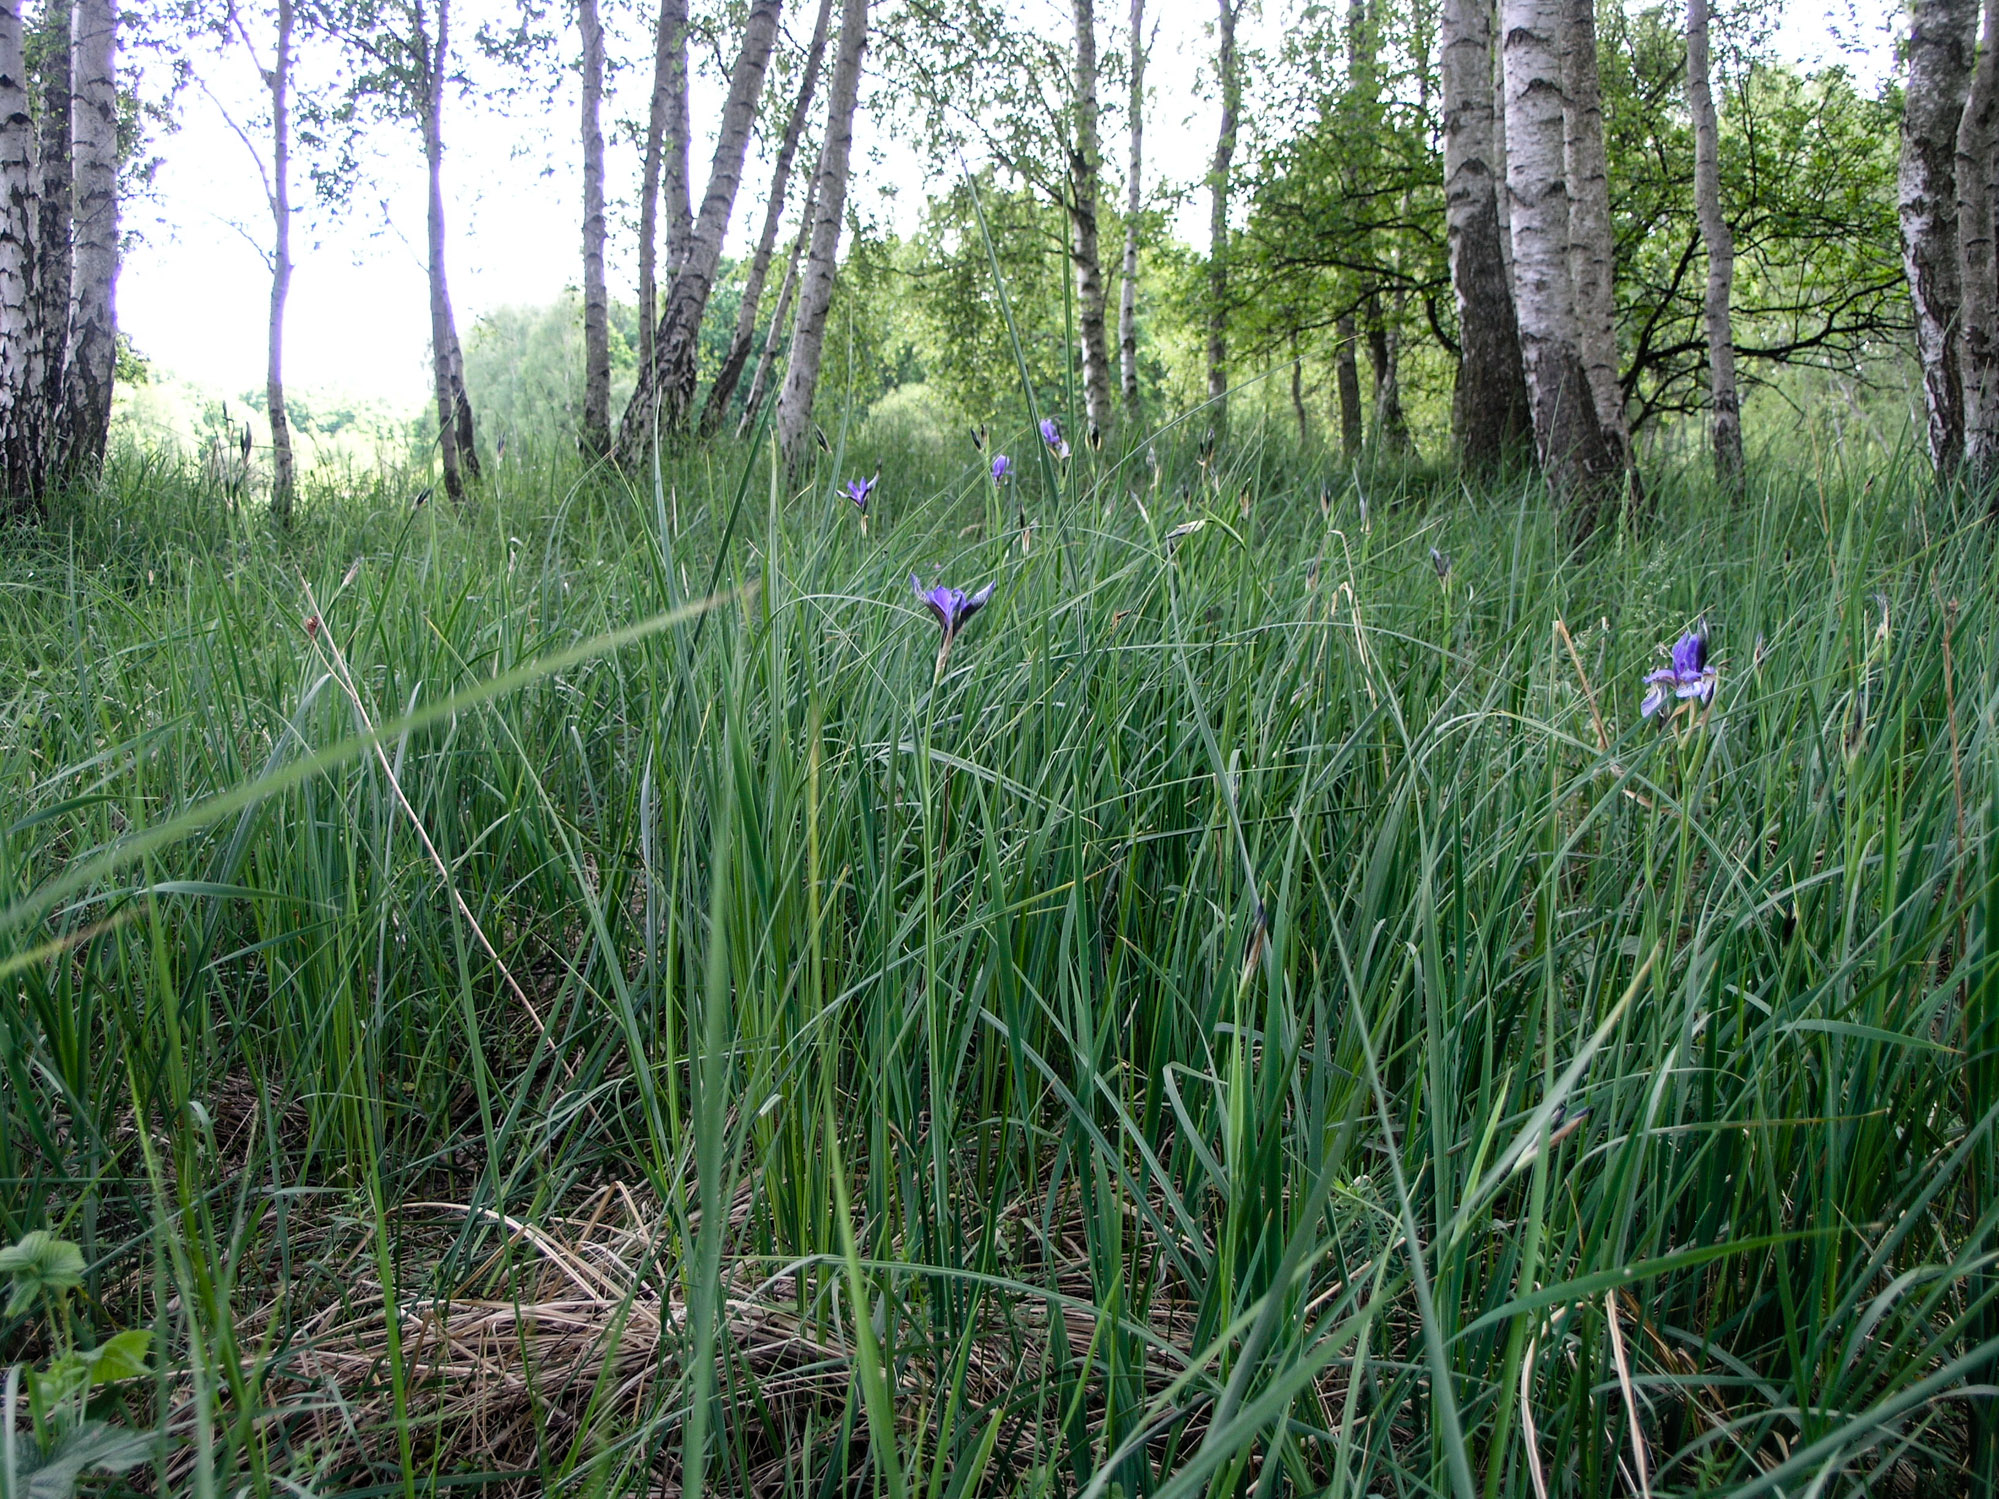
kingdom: Plantae
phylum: Tracheophyta
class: Liliopsida
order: Asparagales
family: Iridaceae
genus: Iris
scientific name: Iris sibirica
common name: Siberian iris
